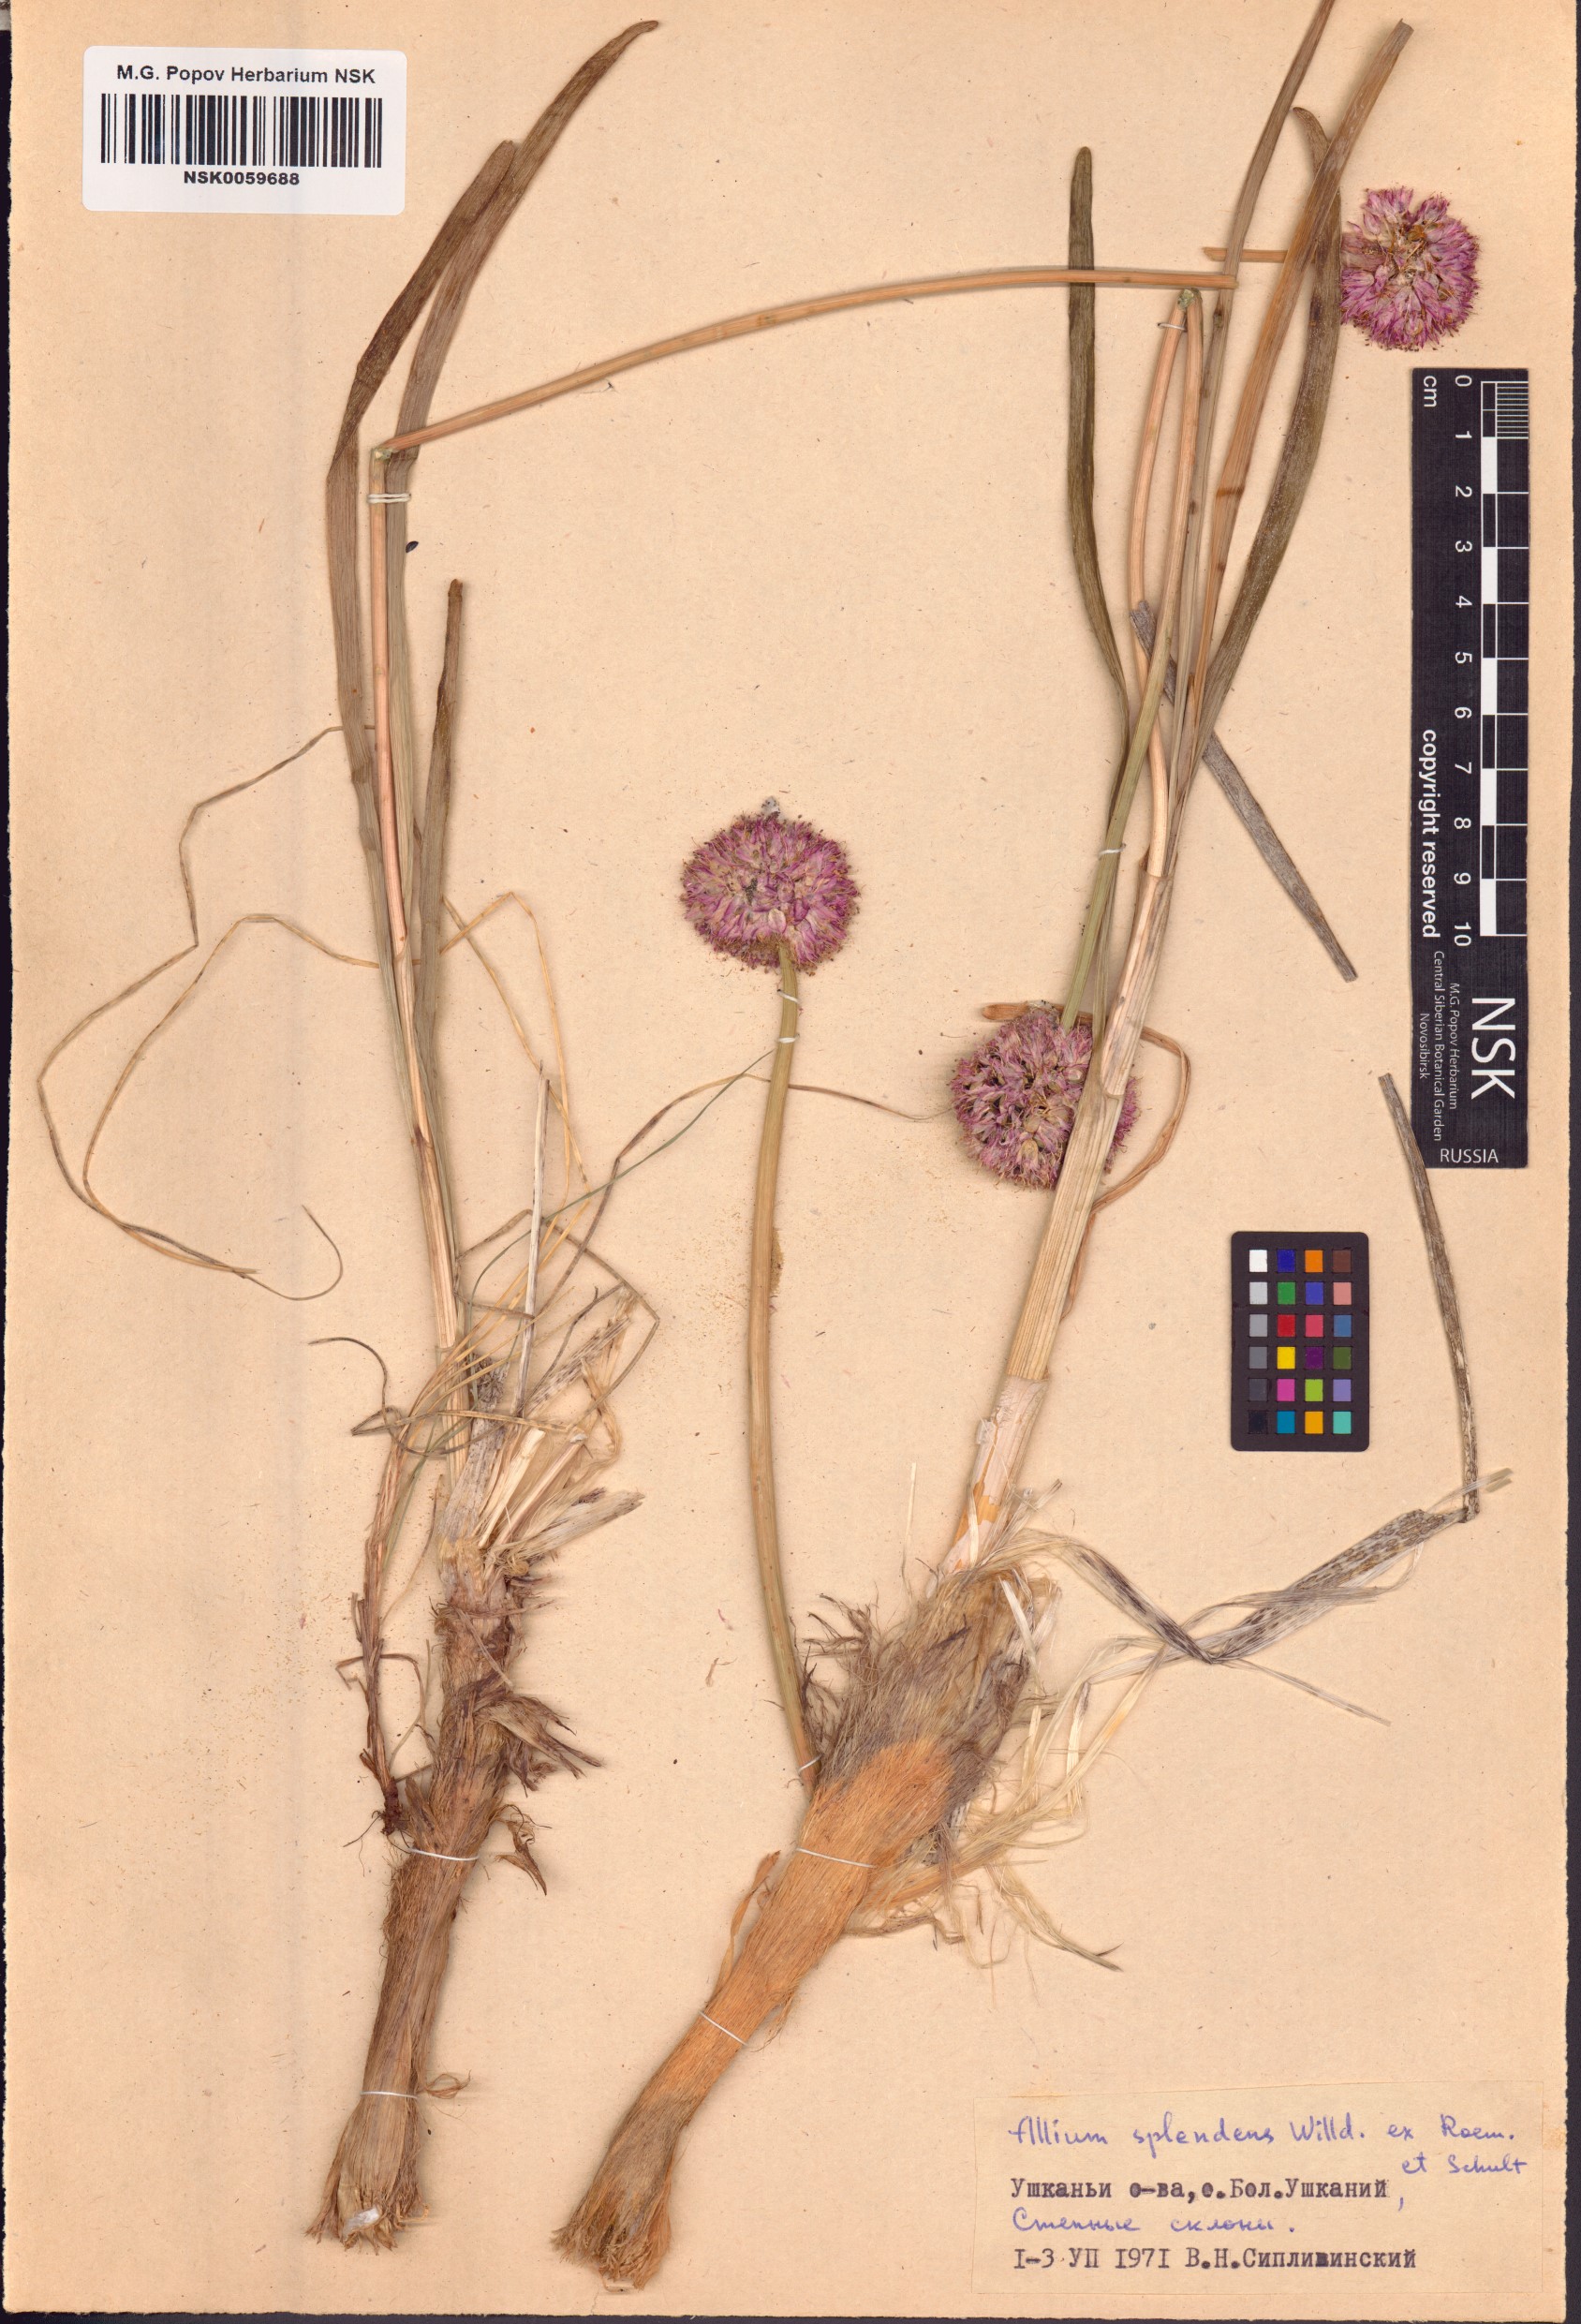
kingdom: Plantae
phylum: Tracheophyta
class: Liliopsida
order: Asparagales
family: Amaryllidaceae
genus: Allium
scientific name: Allium splendens
